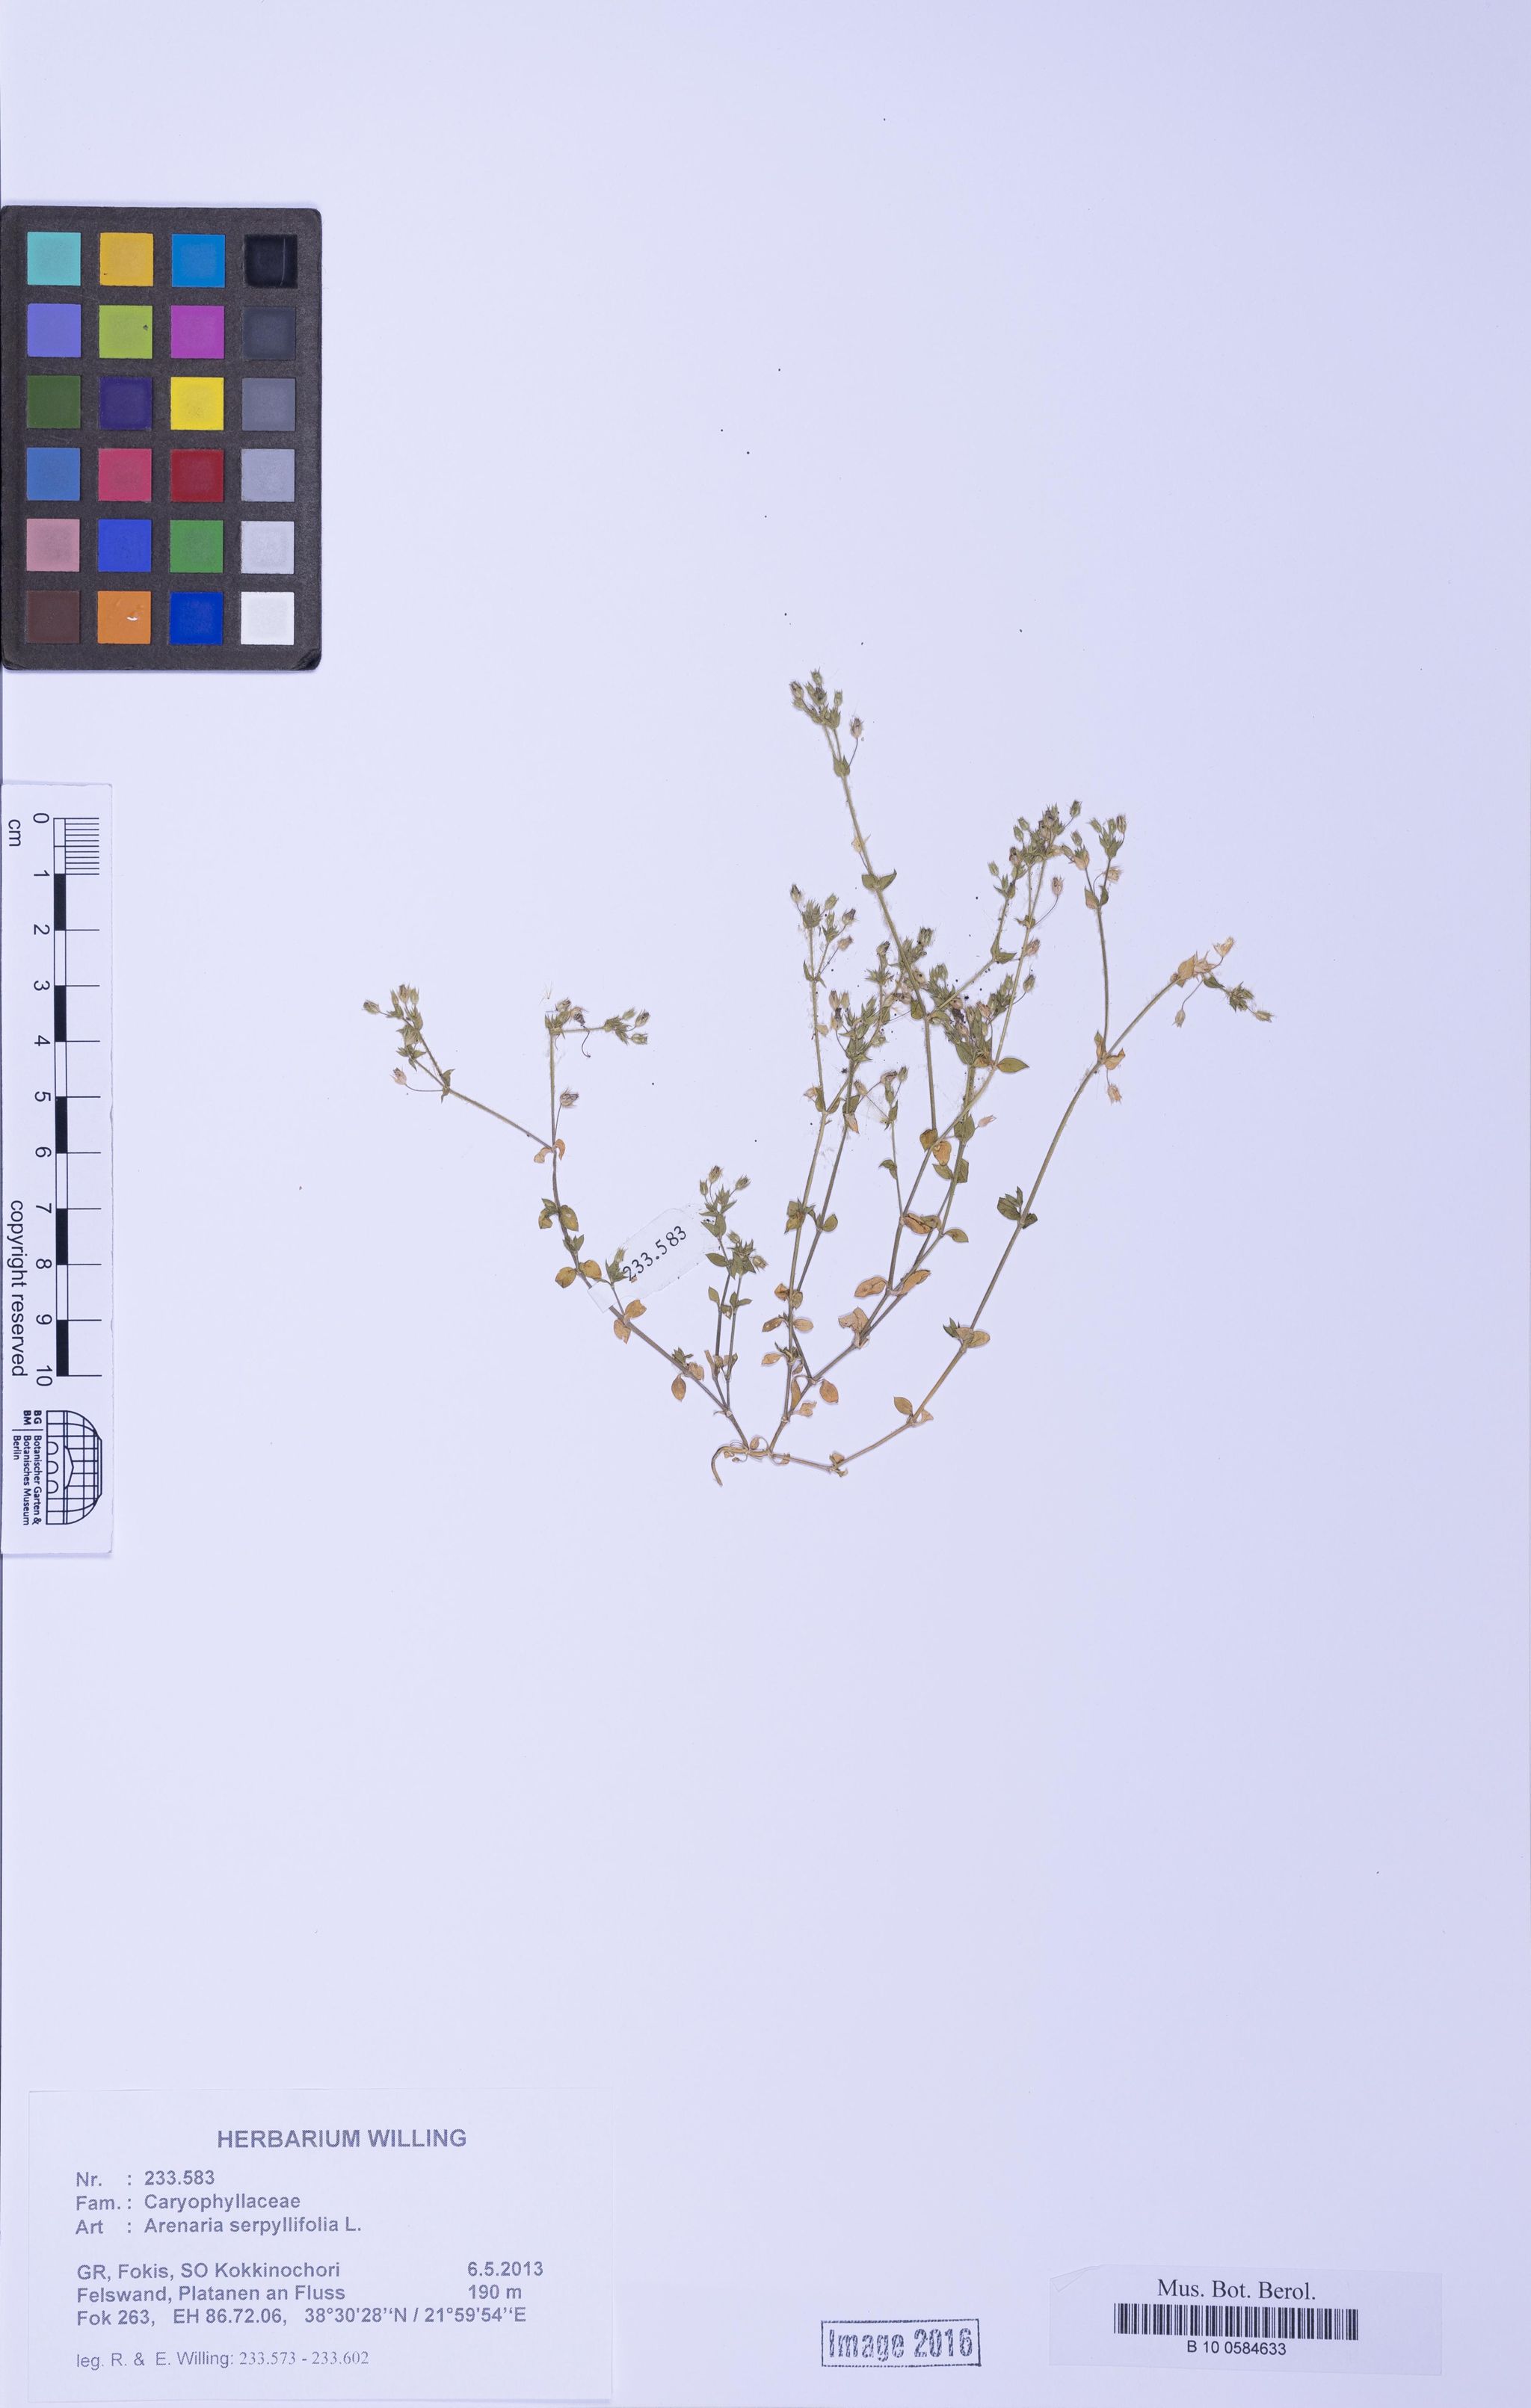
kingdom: Plantae
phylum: Tracheophyta
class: Magnoliopsida
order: Caryophyllales
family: Caryophyllaceae
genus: Arenaria
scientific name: Arenaria serpyllifolia
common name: Thyme-leaved sandwort
